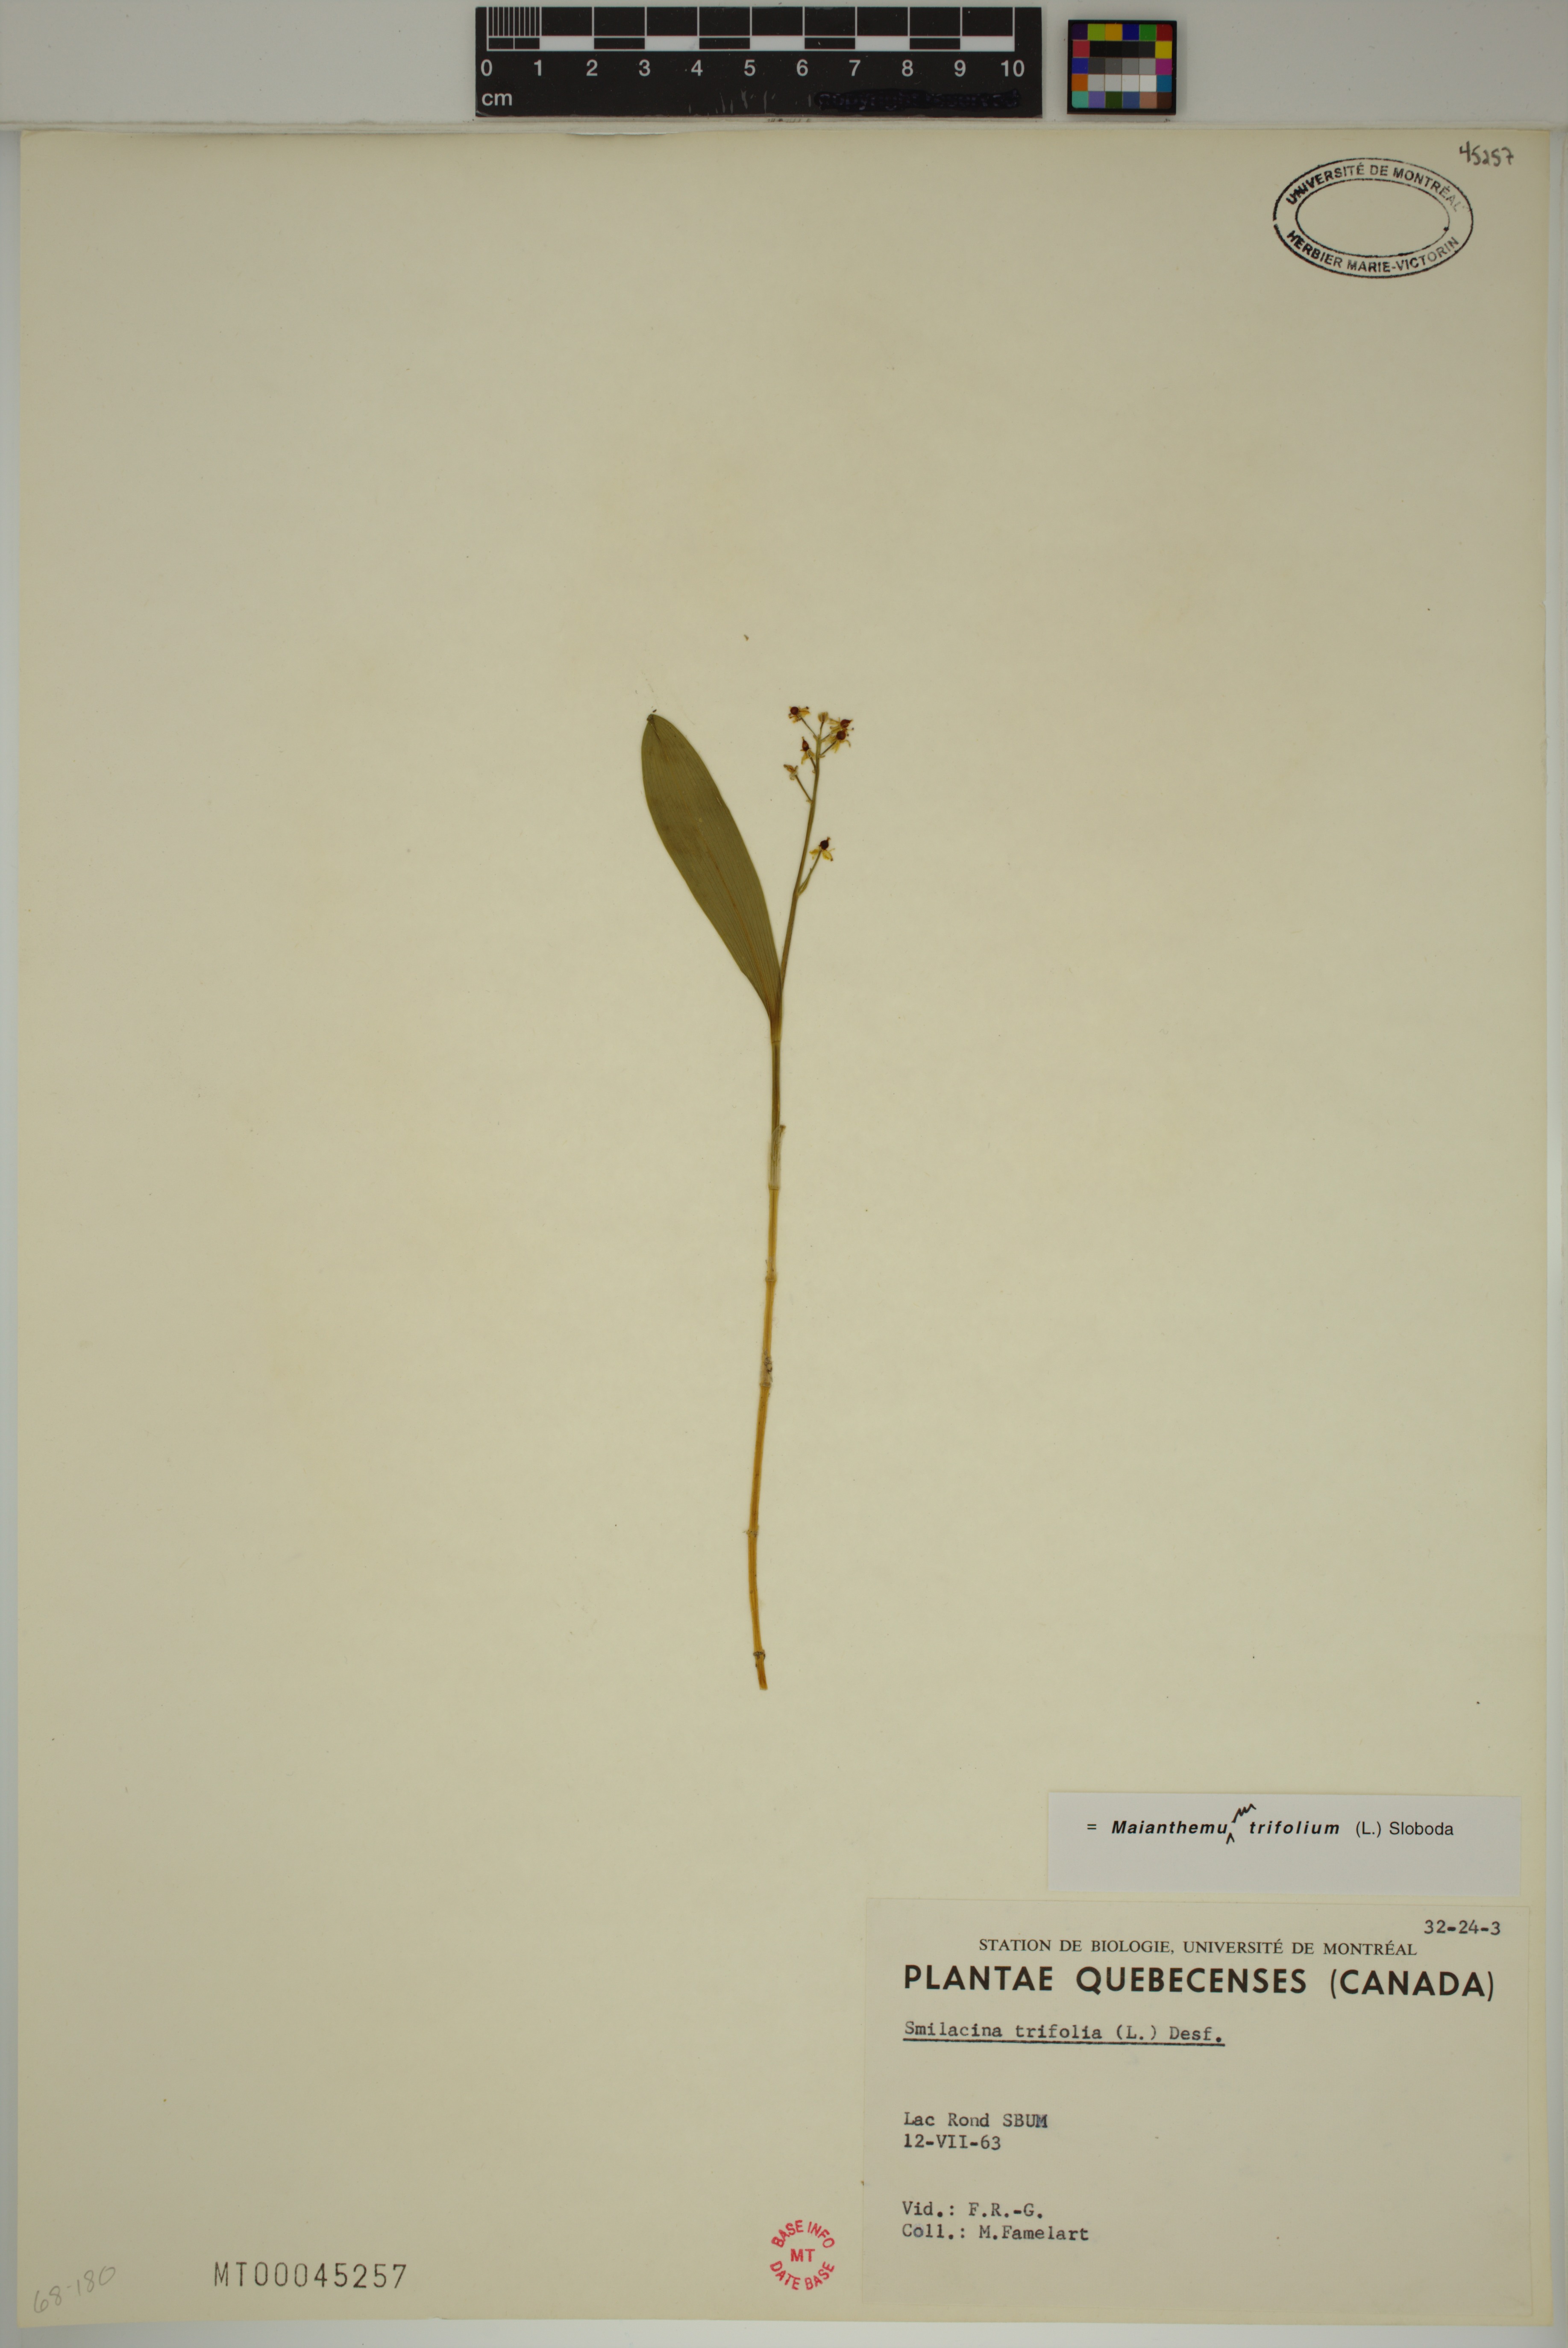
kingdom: Plantae
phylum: Tracheophyta
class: Liliopsida
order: Asparagales
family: Asparagaceae
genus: Maianthemum
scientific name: Maianthemum trifolium
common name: Swamp false solomon's seal
